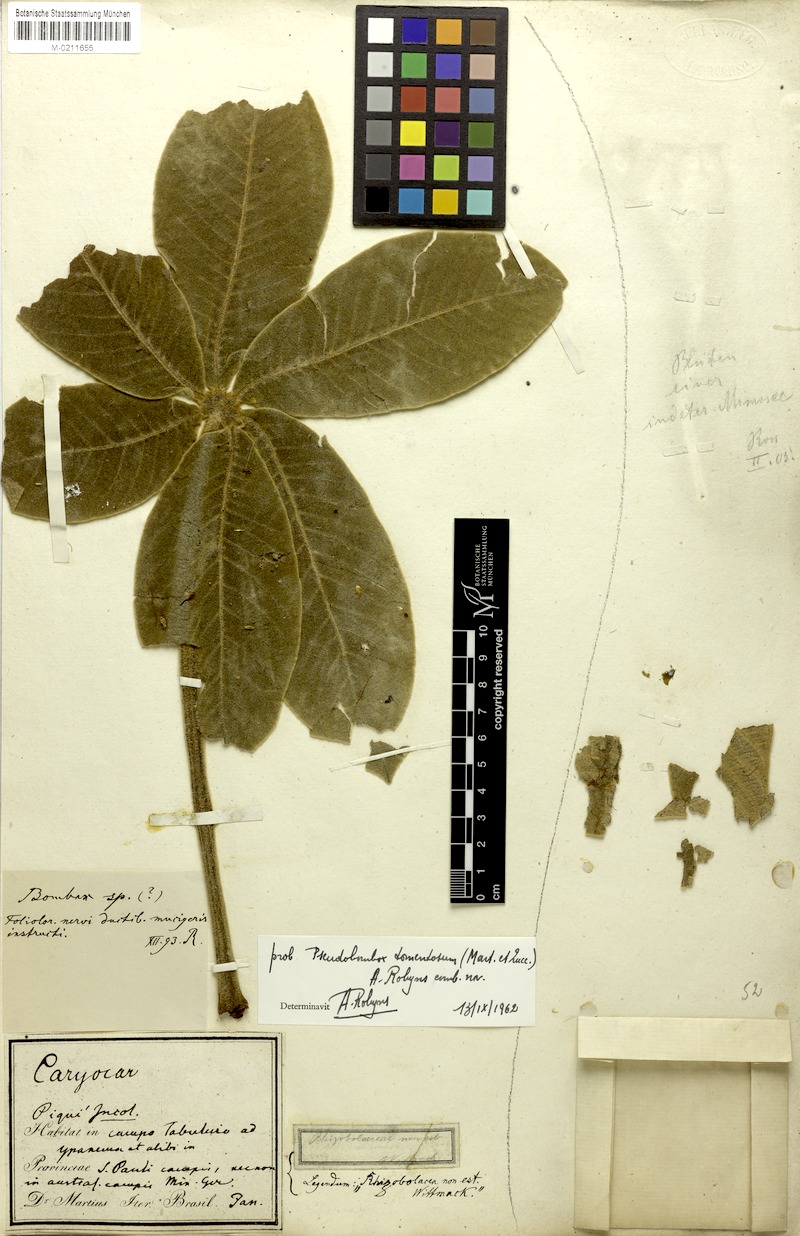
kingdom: Plantae
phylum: Tracheophyta
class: Magnoliopsida
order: Malvales
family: Malvaceae
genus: Pseudobombax
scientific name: Pseudobombax tomentosum
